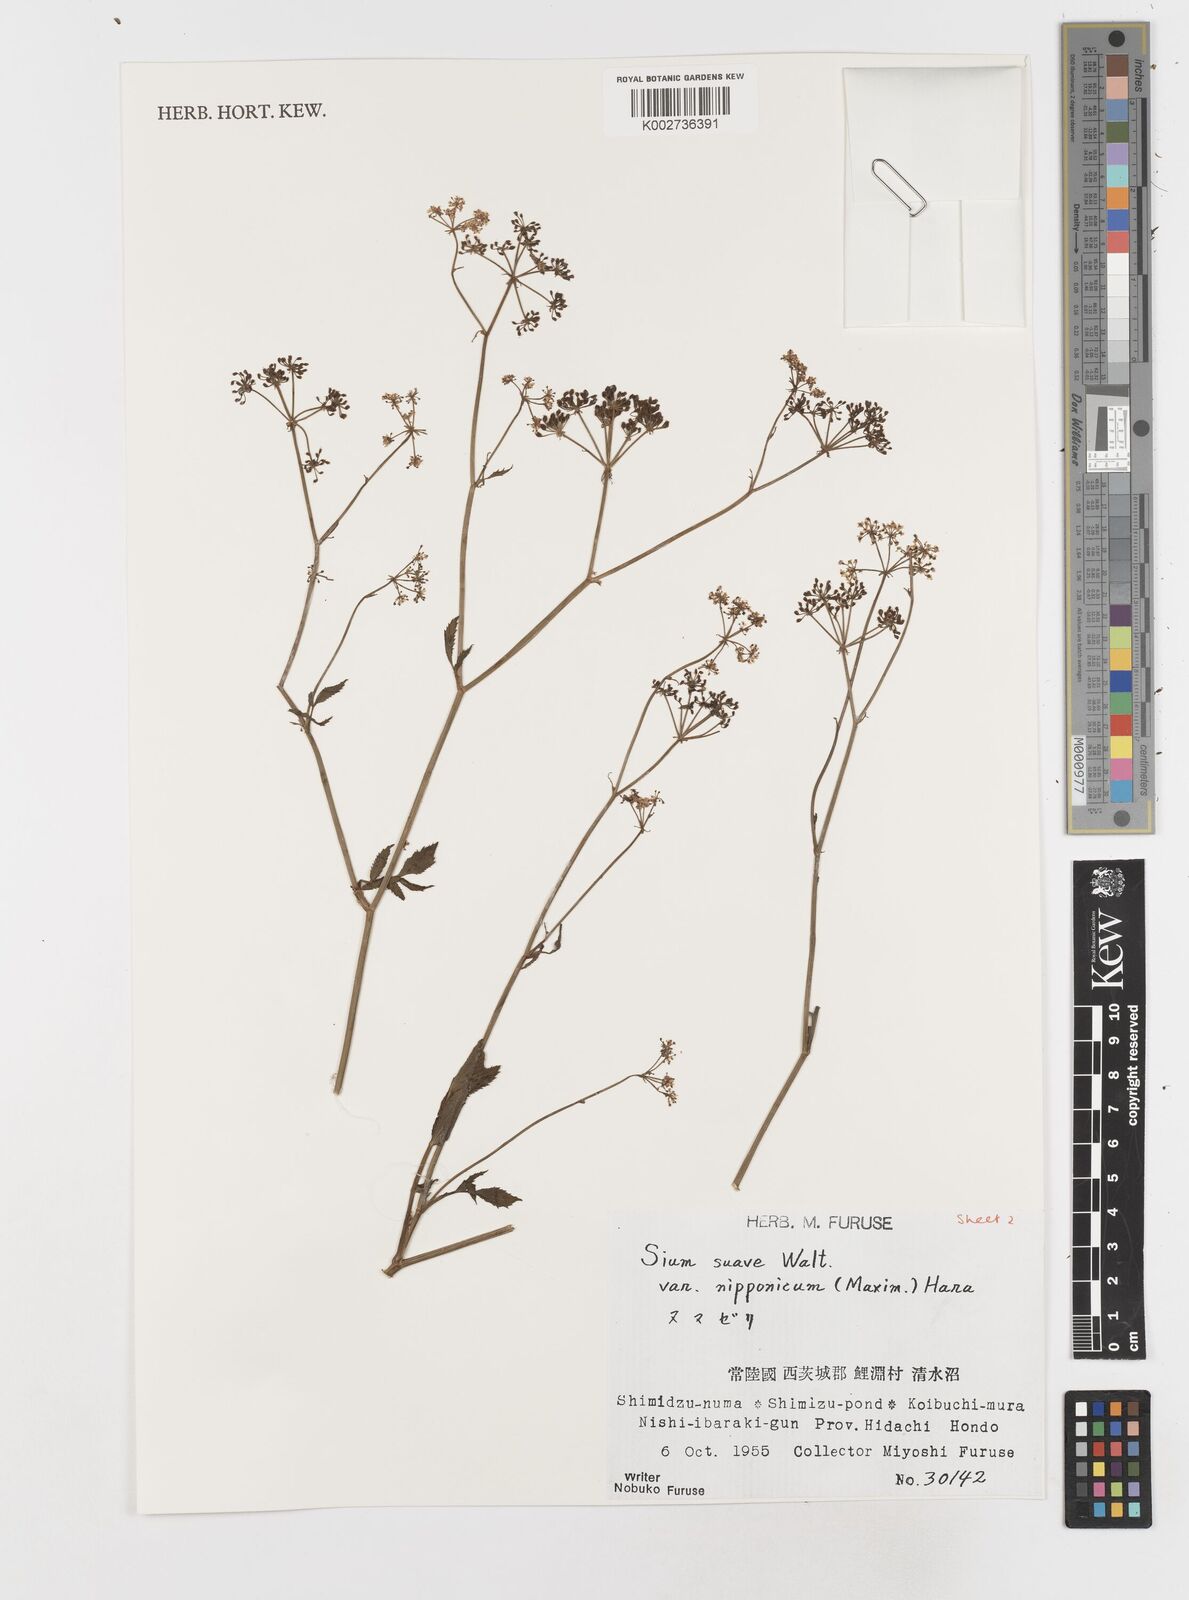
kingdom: Plantae
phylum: Tracheophyta
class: Magnoliopsida
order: Apiales
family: Apiaceae
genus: Sium
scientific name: Sium suave
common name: Hemlock water-parsnip
